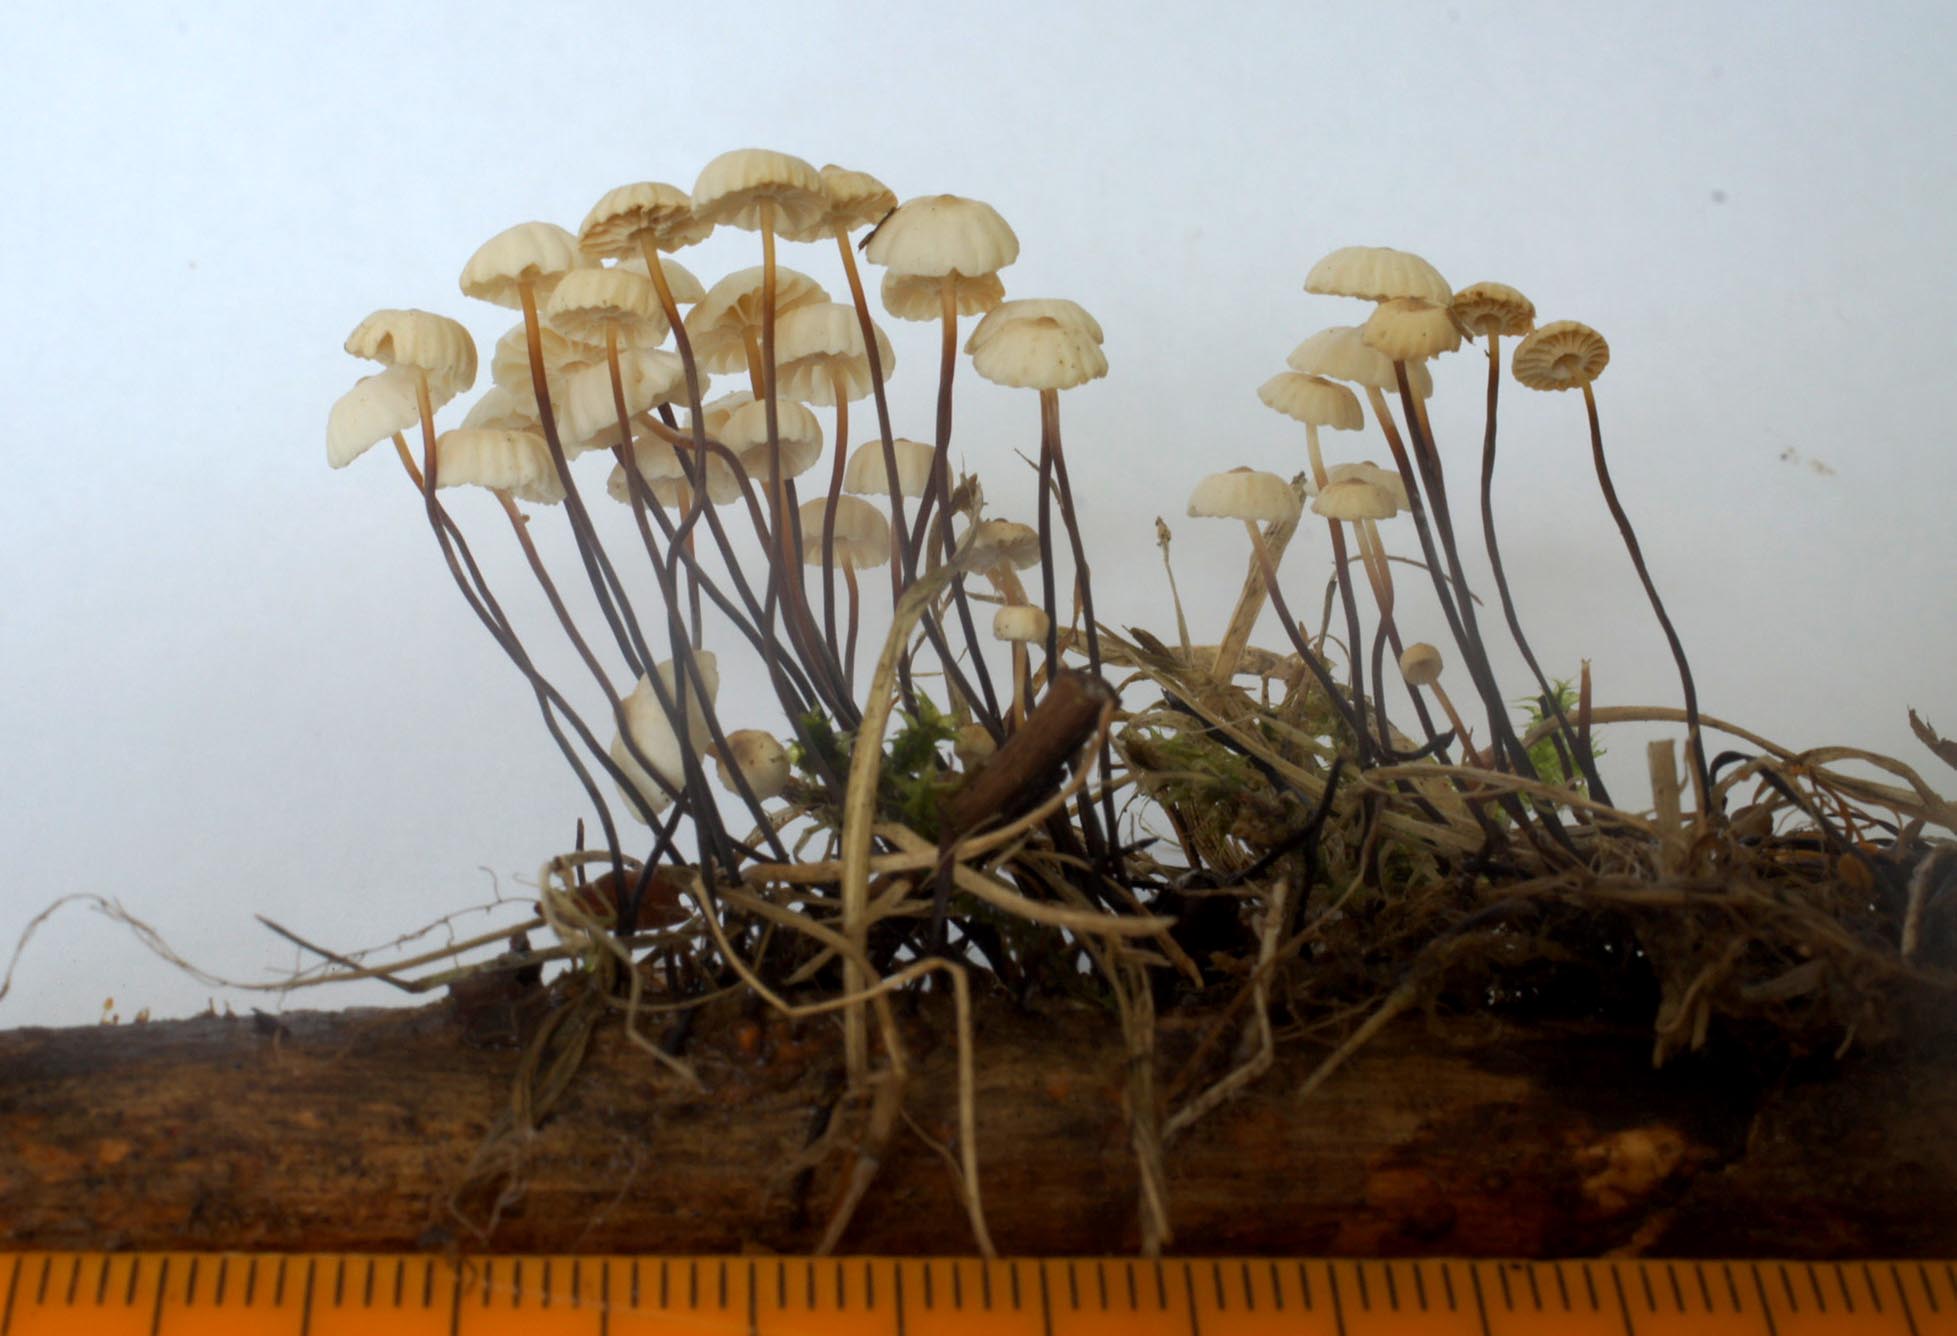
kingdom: Fungi
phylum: Basidiomycota
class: Agaricomycetes
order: Agaricales
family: Marasmiaceae
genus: Marasmius
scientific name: Marasmius rotula
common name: hjul-bruskhat
